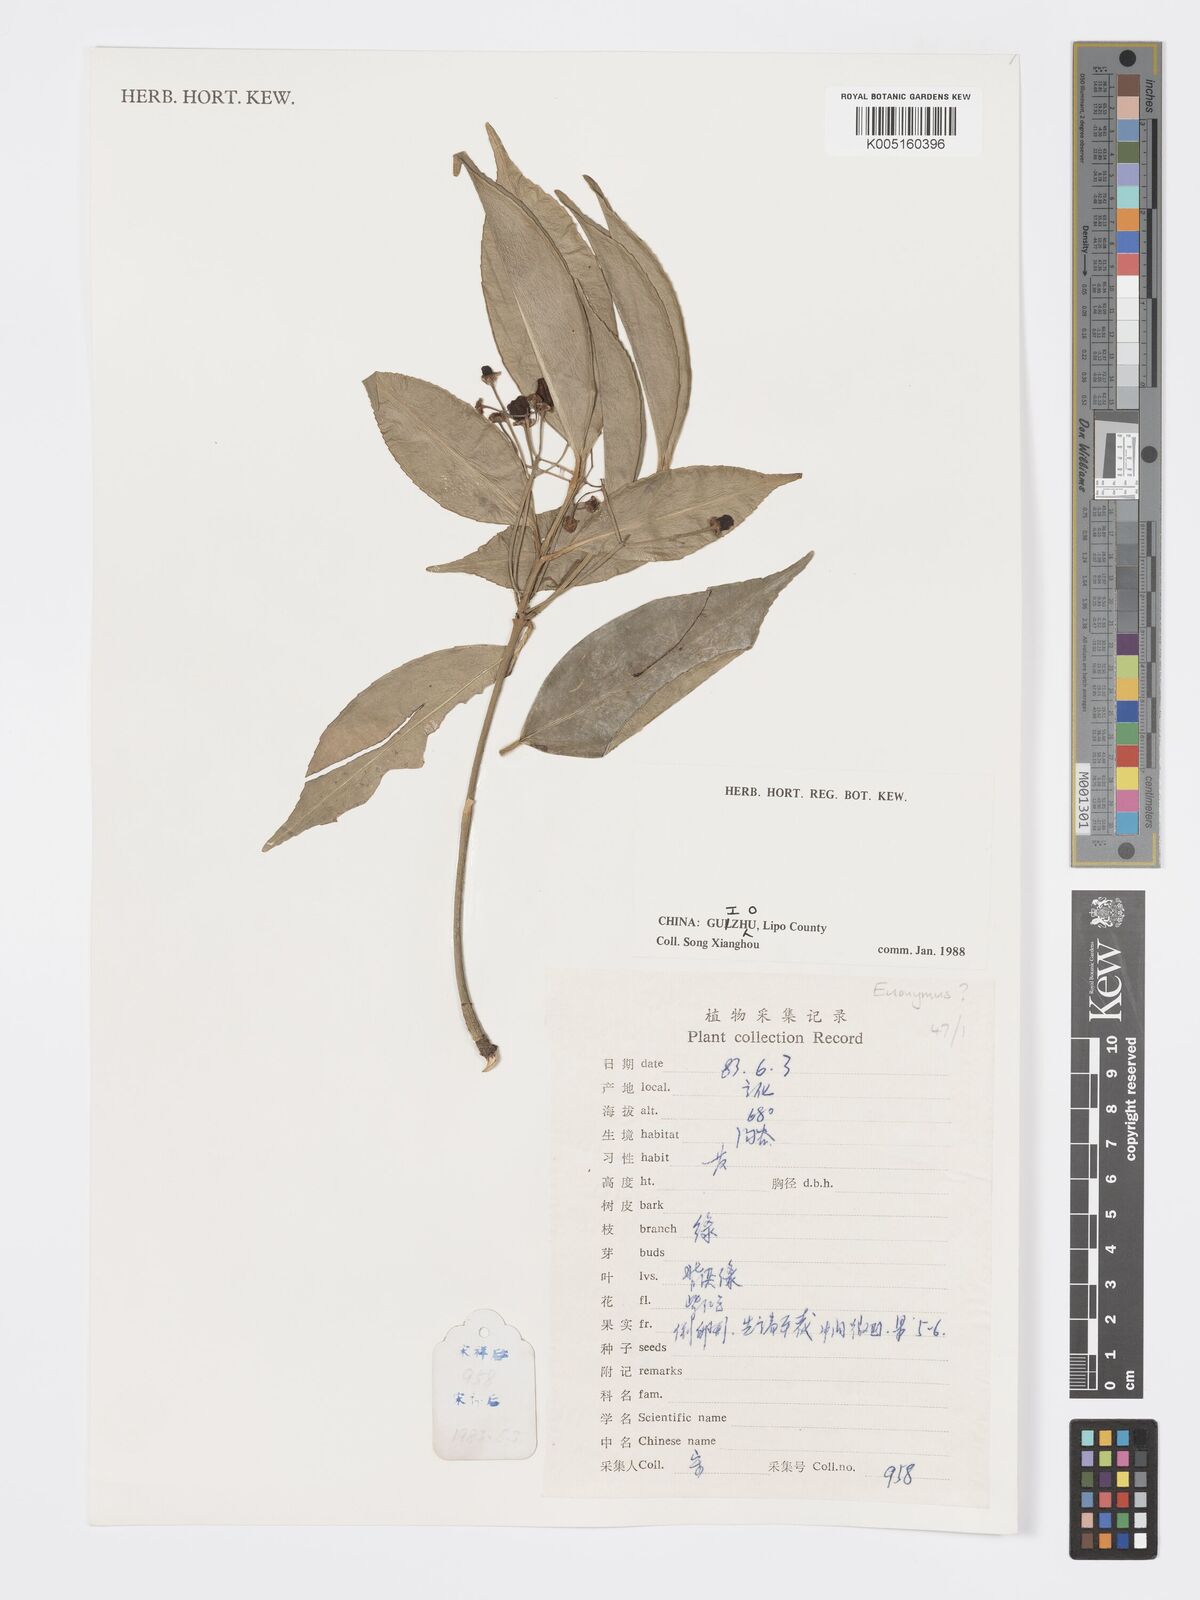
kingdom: Plantae
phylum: Tracheophyta
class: Magnoliopsida
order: Celastrales
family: Celastraceae
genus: Euonymus
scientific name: Euonymus
